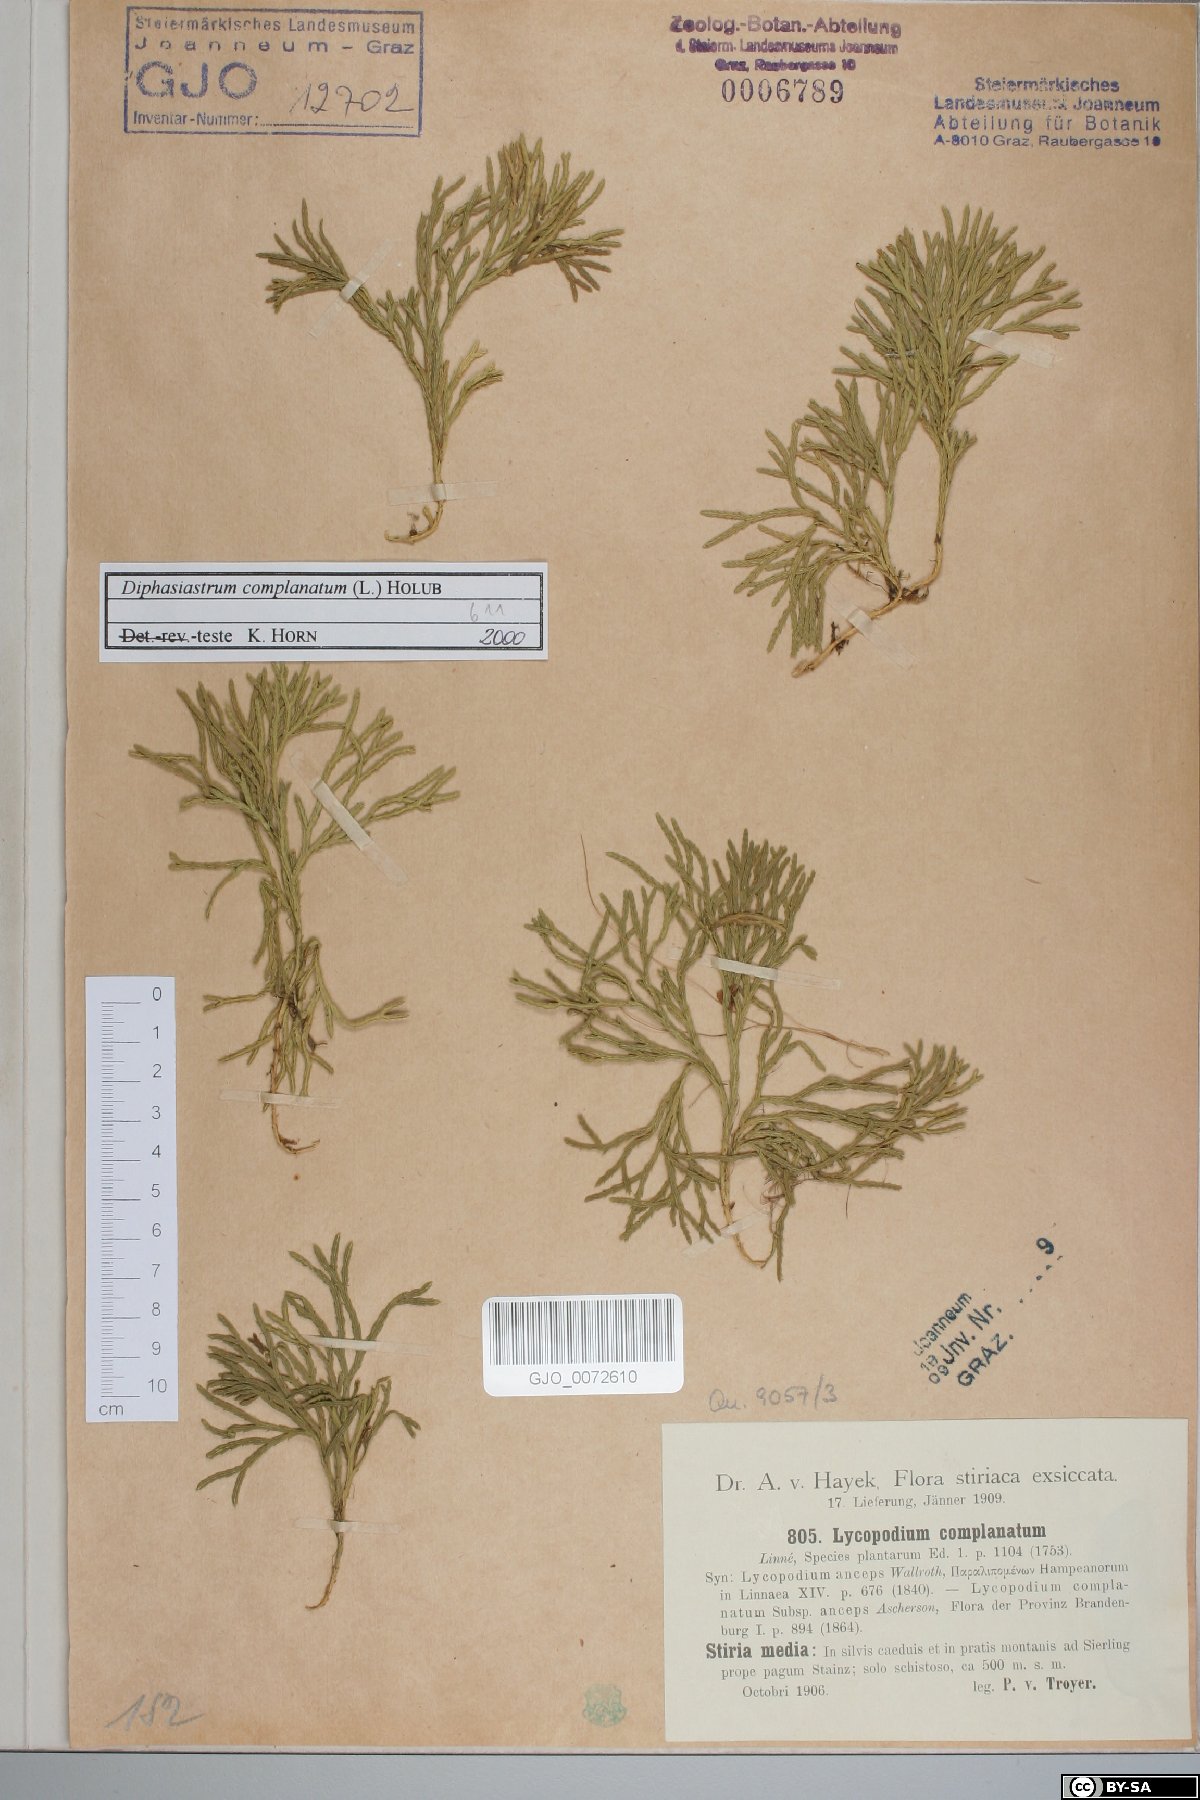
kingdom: Plantae
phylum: Tracheophyta
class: Lycopodiopsida
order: Lycopodiales
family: Lycopodiaceae
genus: Diphasiastrum
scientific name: Diphasiastrum complanatum
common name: Northern running-pine
